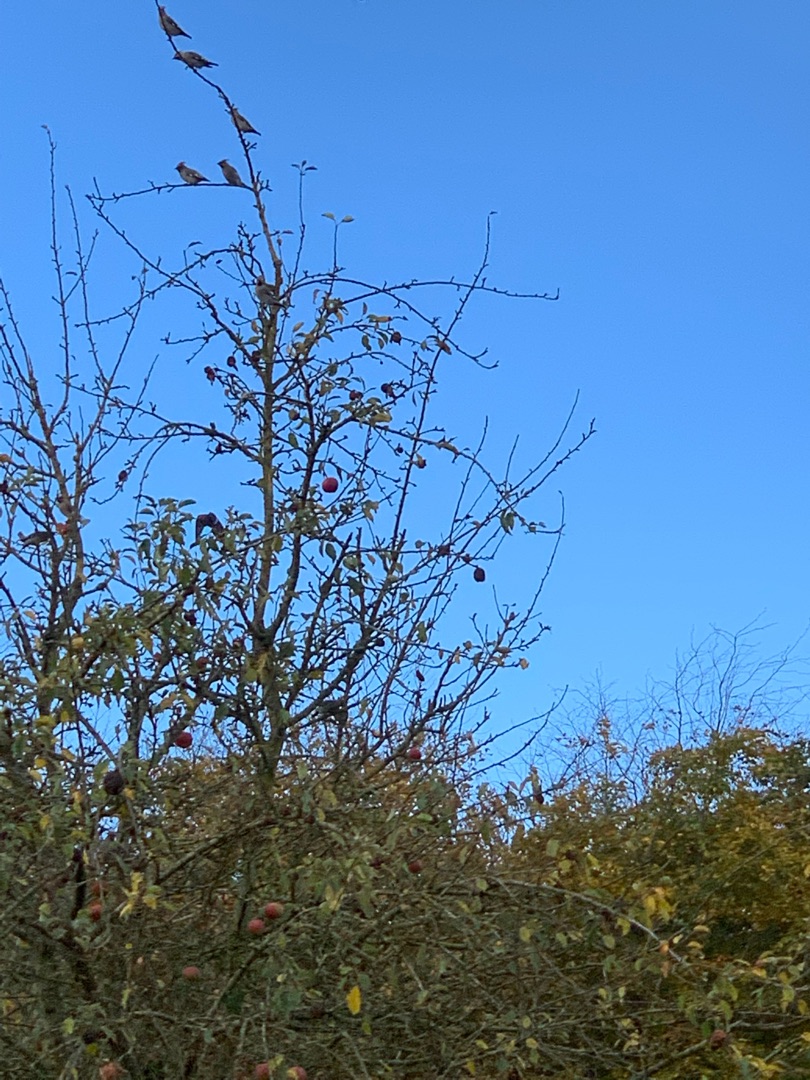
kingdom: Animalia
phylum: Chordata
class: Aves
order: Passeriformes
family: Bombycillidae
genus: Bombycilla
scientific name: Bombycilla garrulus
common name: Silkehale
